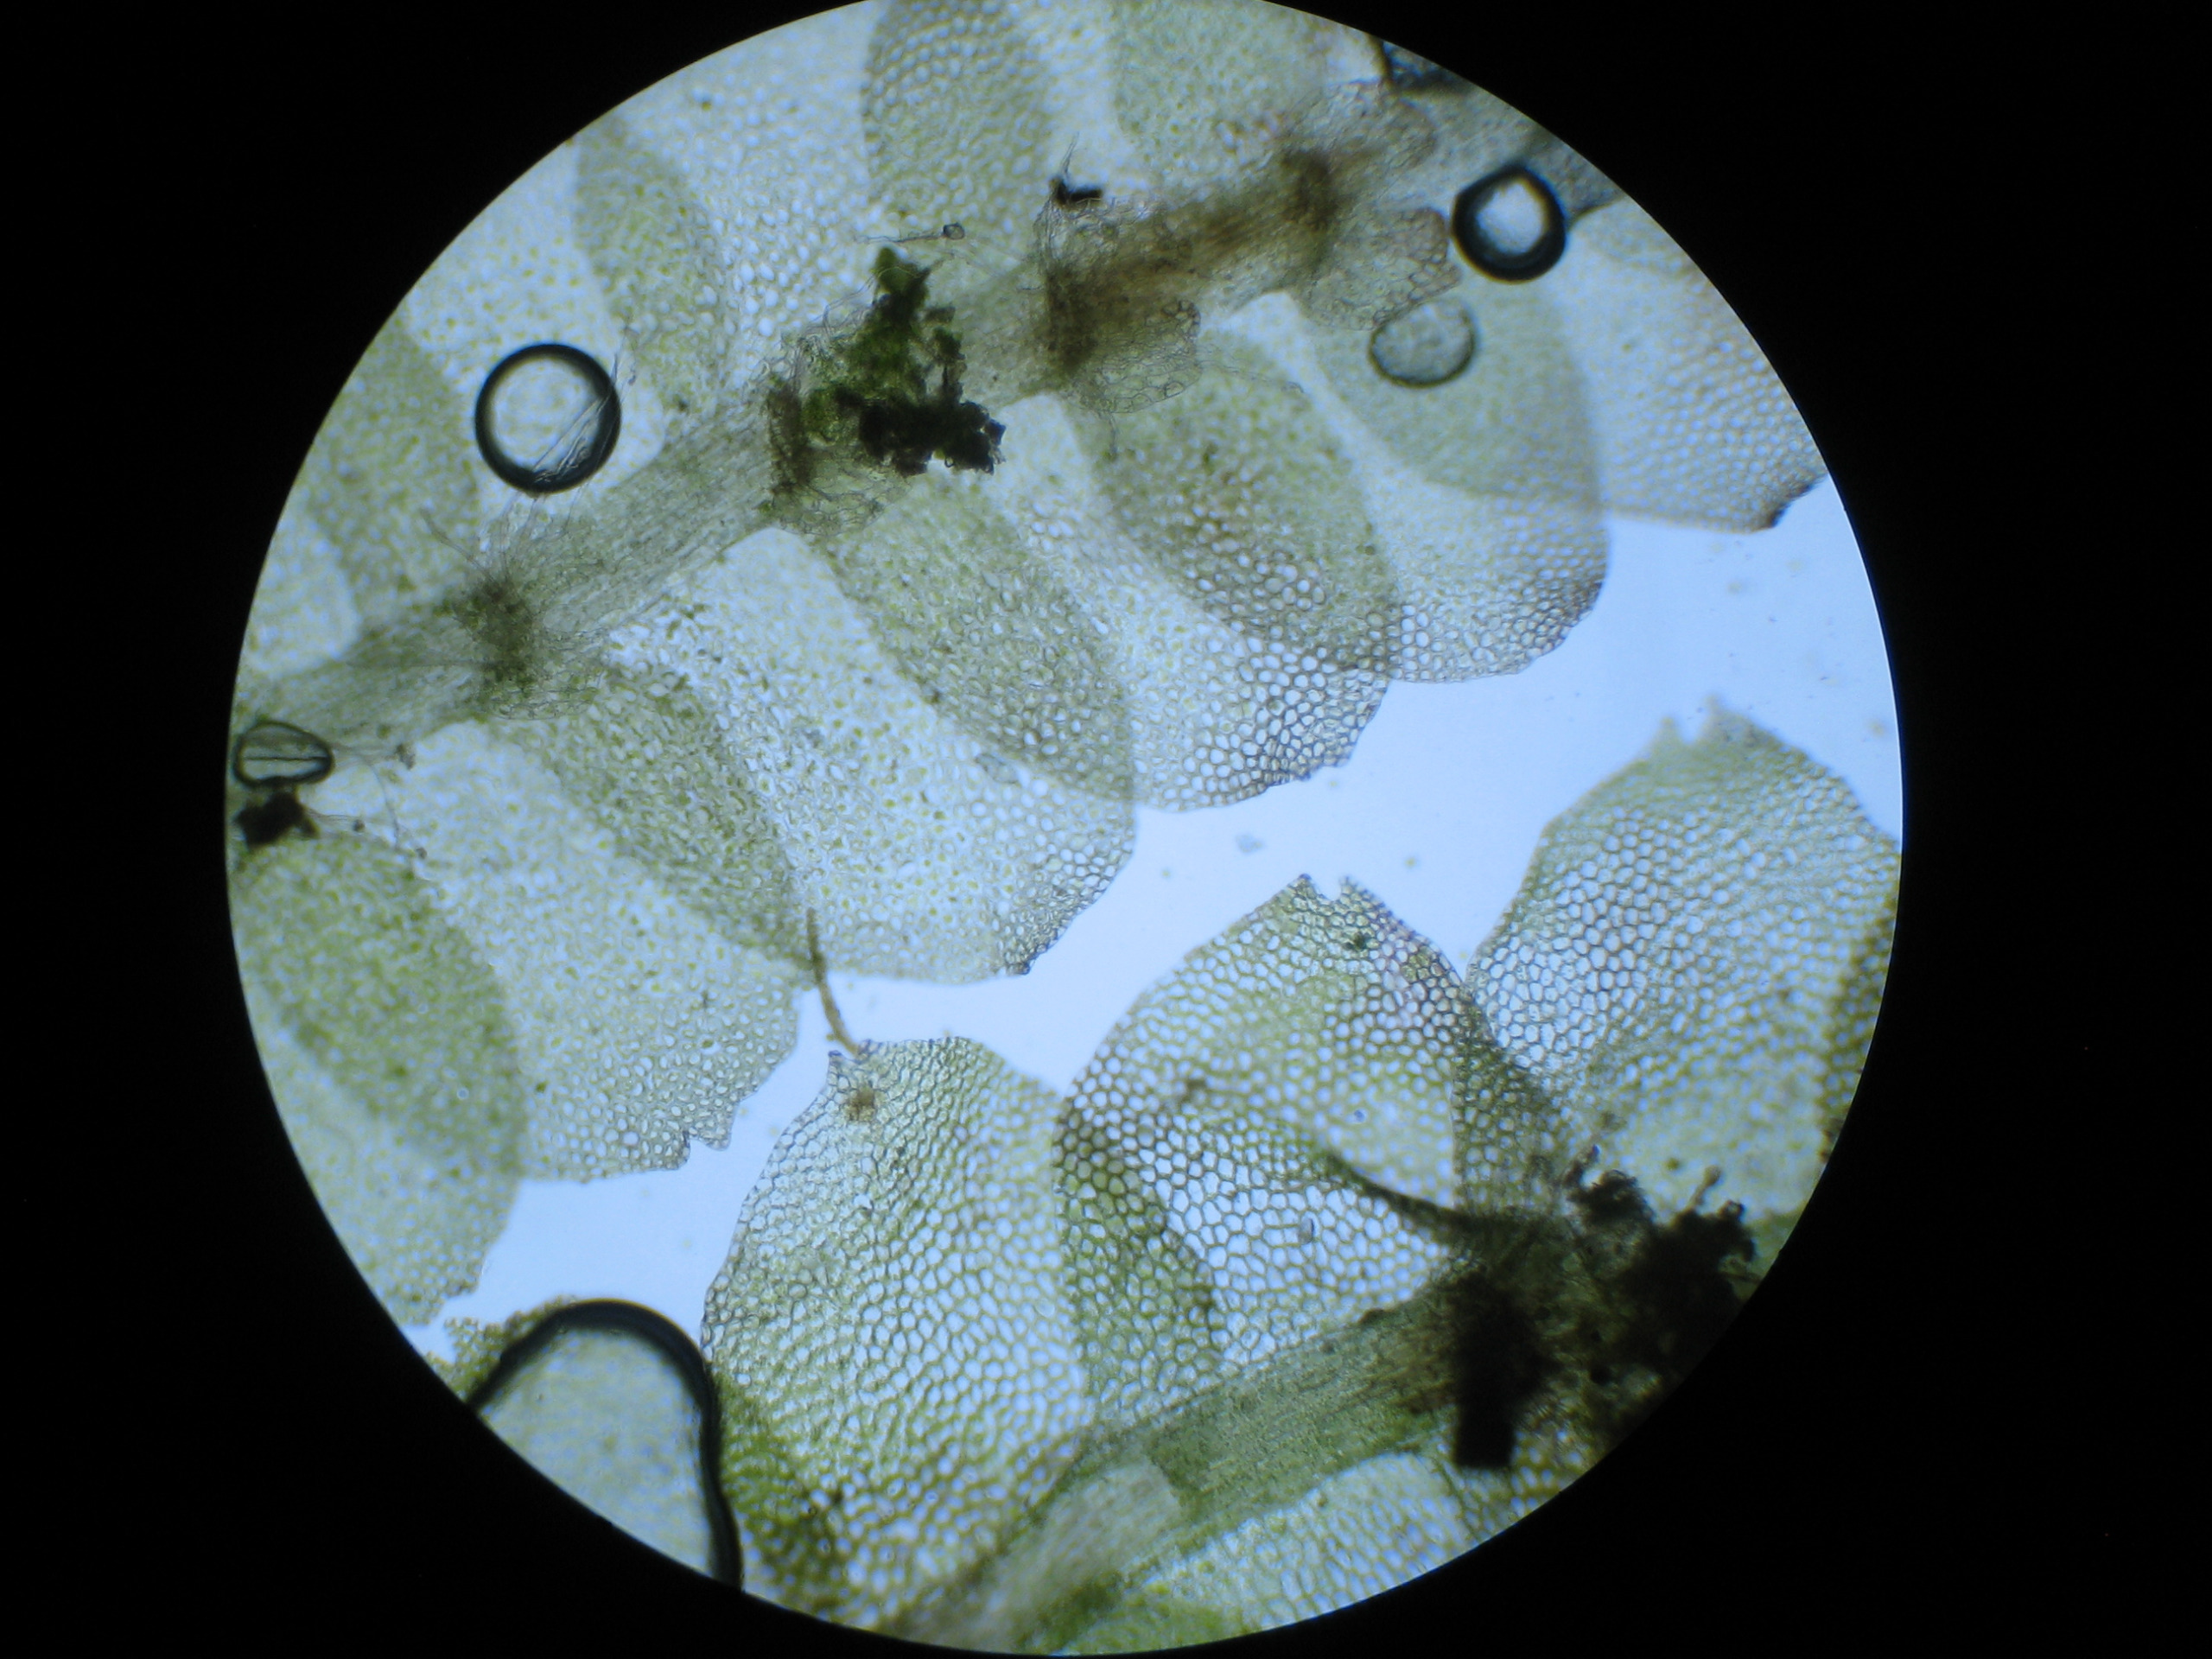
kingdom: Plantae
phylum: Marchantiophyta
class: Jungermanniopsida
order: Jungermanniales
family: Calypogeiaceae
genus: Calypogeia
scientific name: Calypogeia fissa
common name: Tvespidset sækmos
